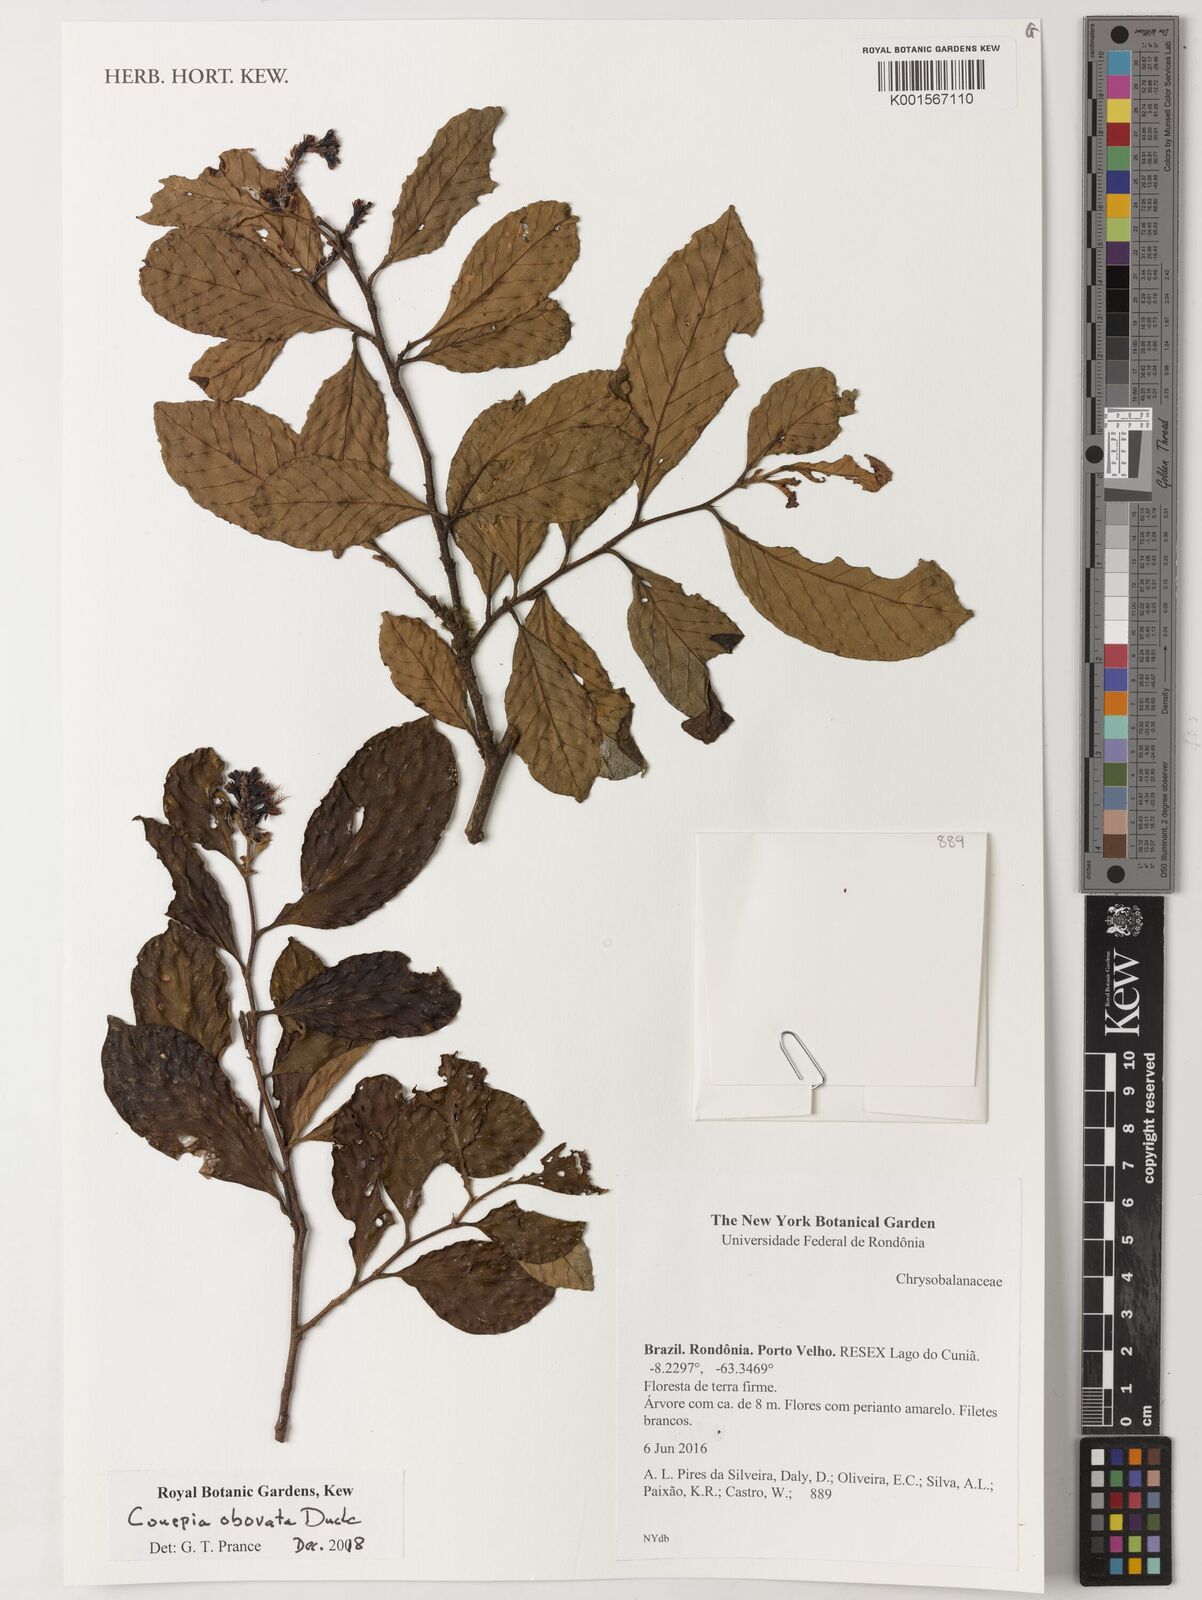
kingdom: Plantae
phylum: Tracheophyta
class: Magnoliopsida
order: Malpighiales
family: Chrysobalanaceae
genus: Couepia
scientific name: Couepia obovata
